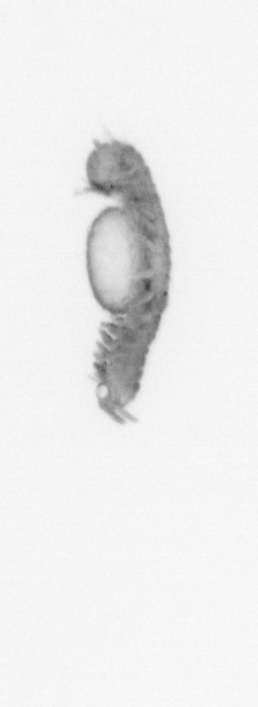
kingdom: Animalia
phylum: Annelida
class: Polychaeta
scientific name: Polychaeta
